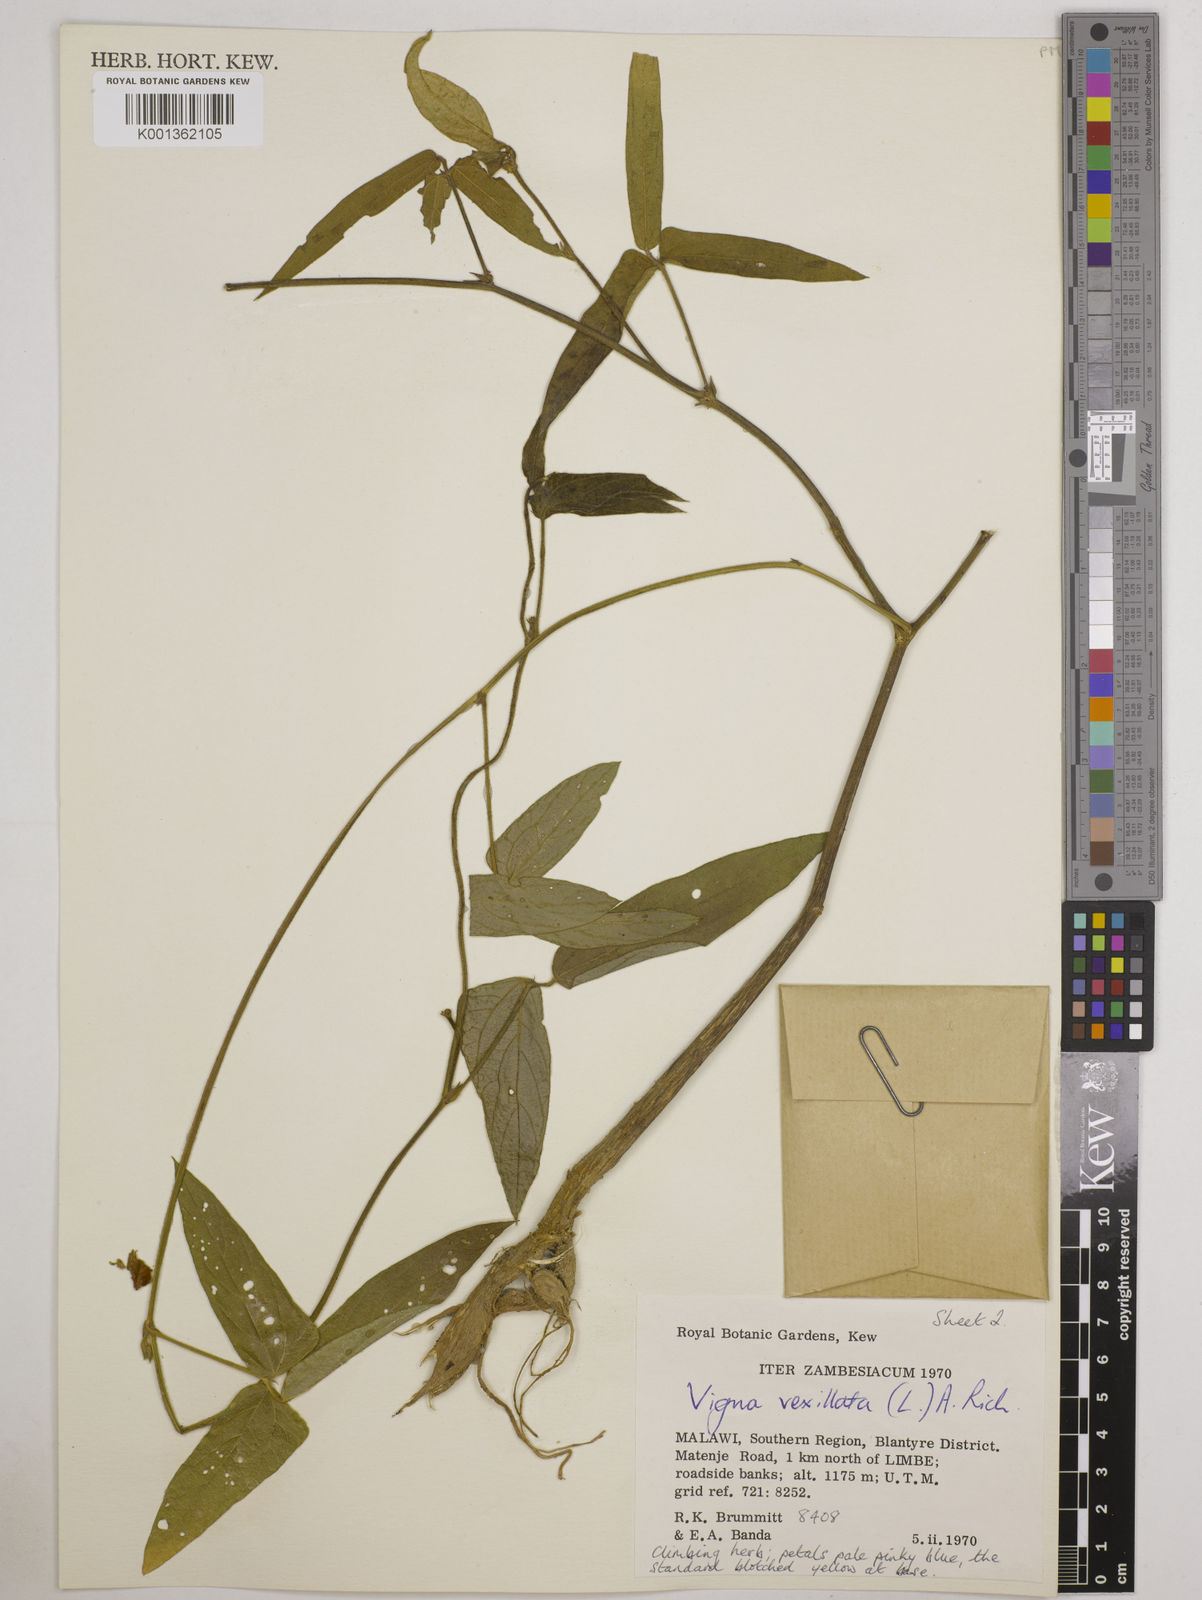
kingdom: Plantae
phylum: Tracheophyta
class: Magnoliopsida
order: Fabales
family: Fabaceae
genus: Vigna
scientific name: Vigna vexillata
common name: Zombi pea
